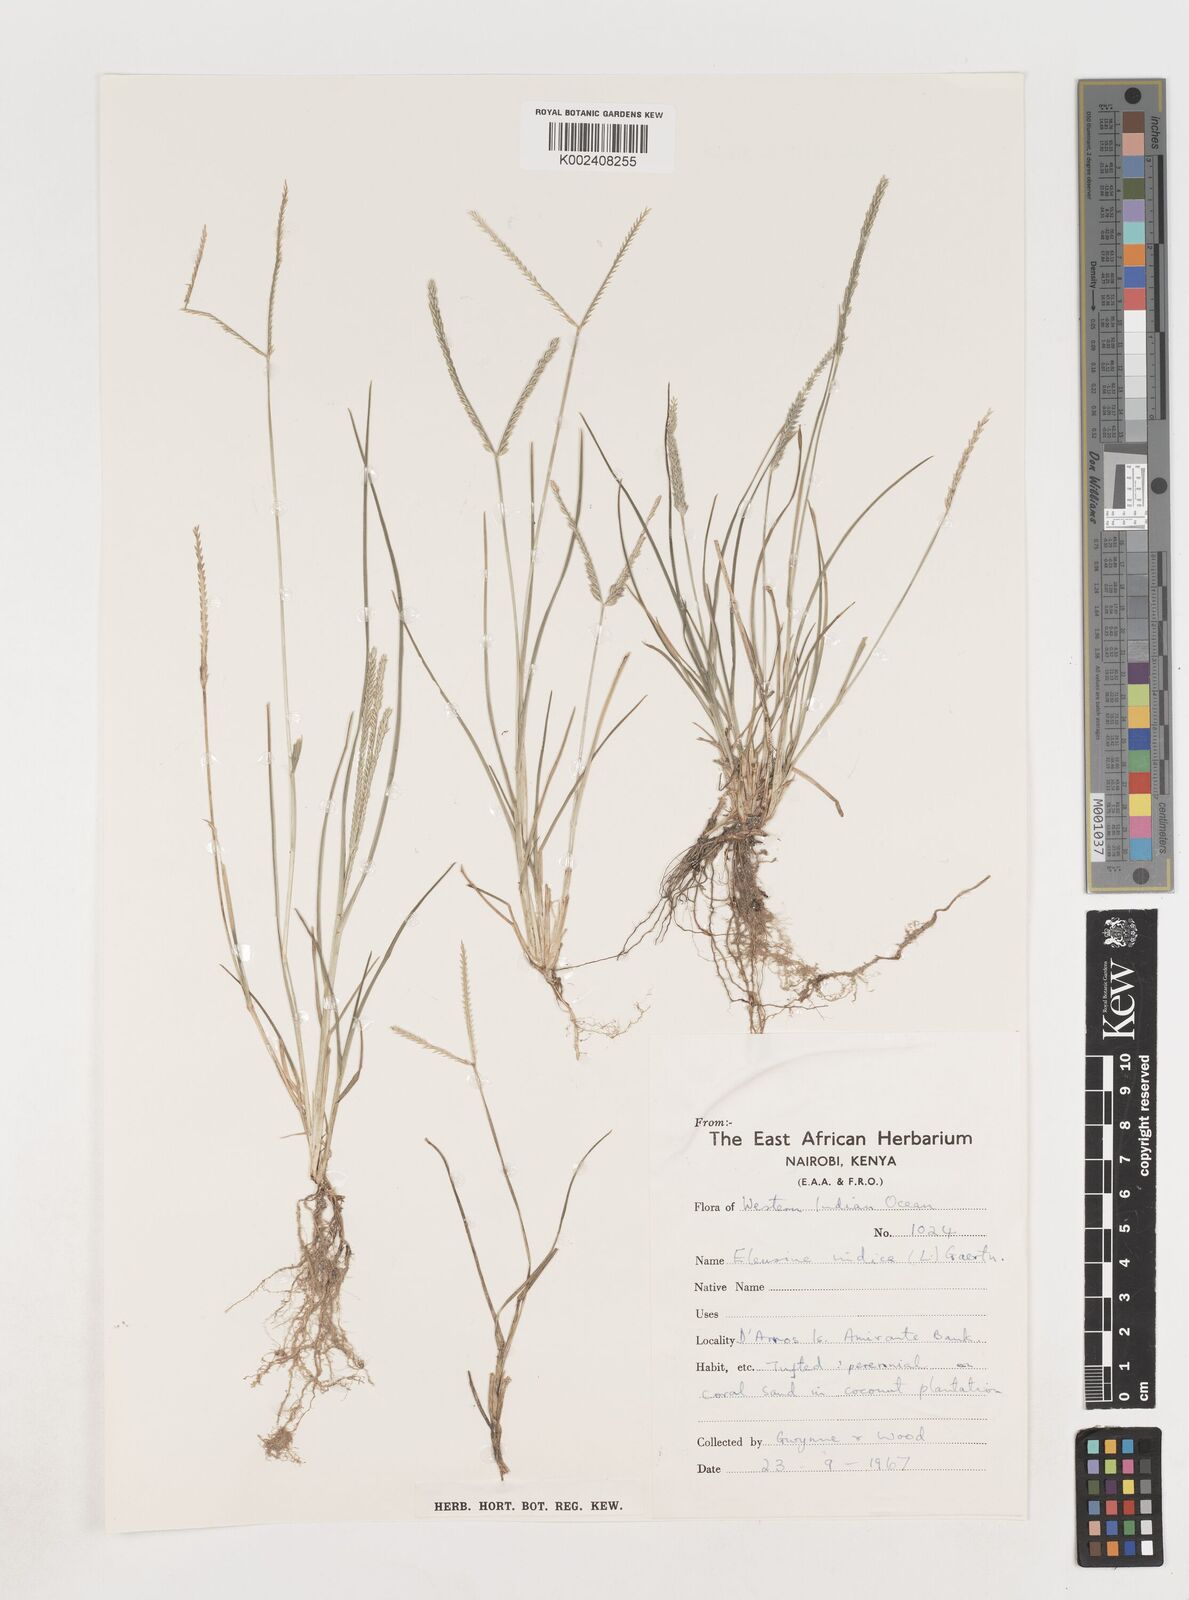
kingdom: Plantae
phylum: Tracheophyta
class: Liliopsida
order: Poales
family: Poaceae
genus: Eleusine
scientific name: Eleusine indica
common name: Yard-grass
